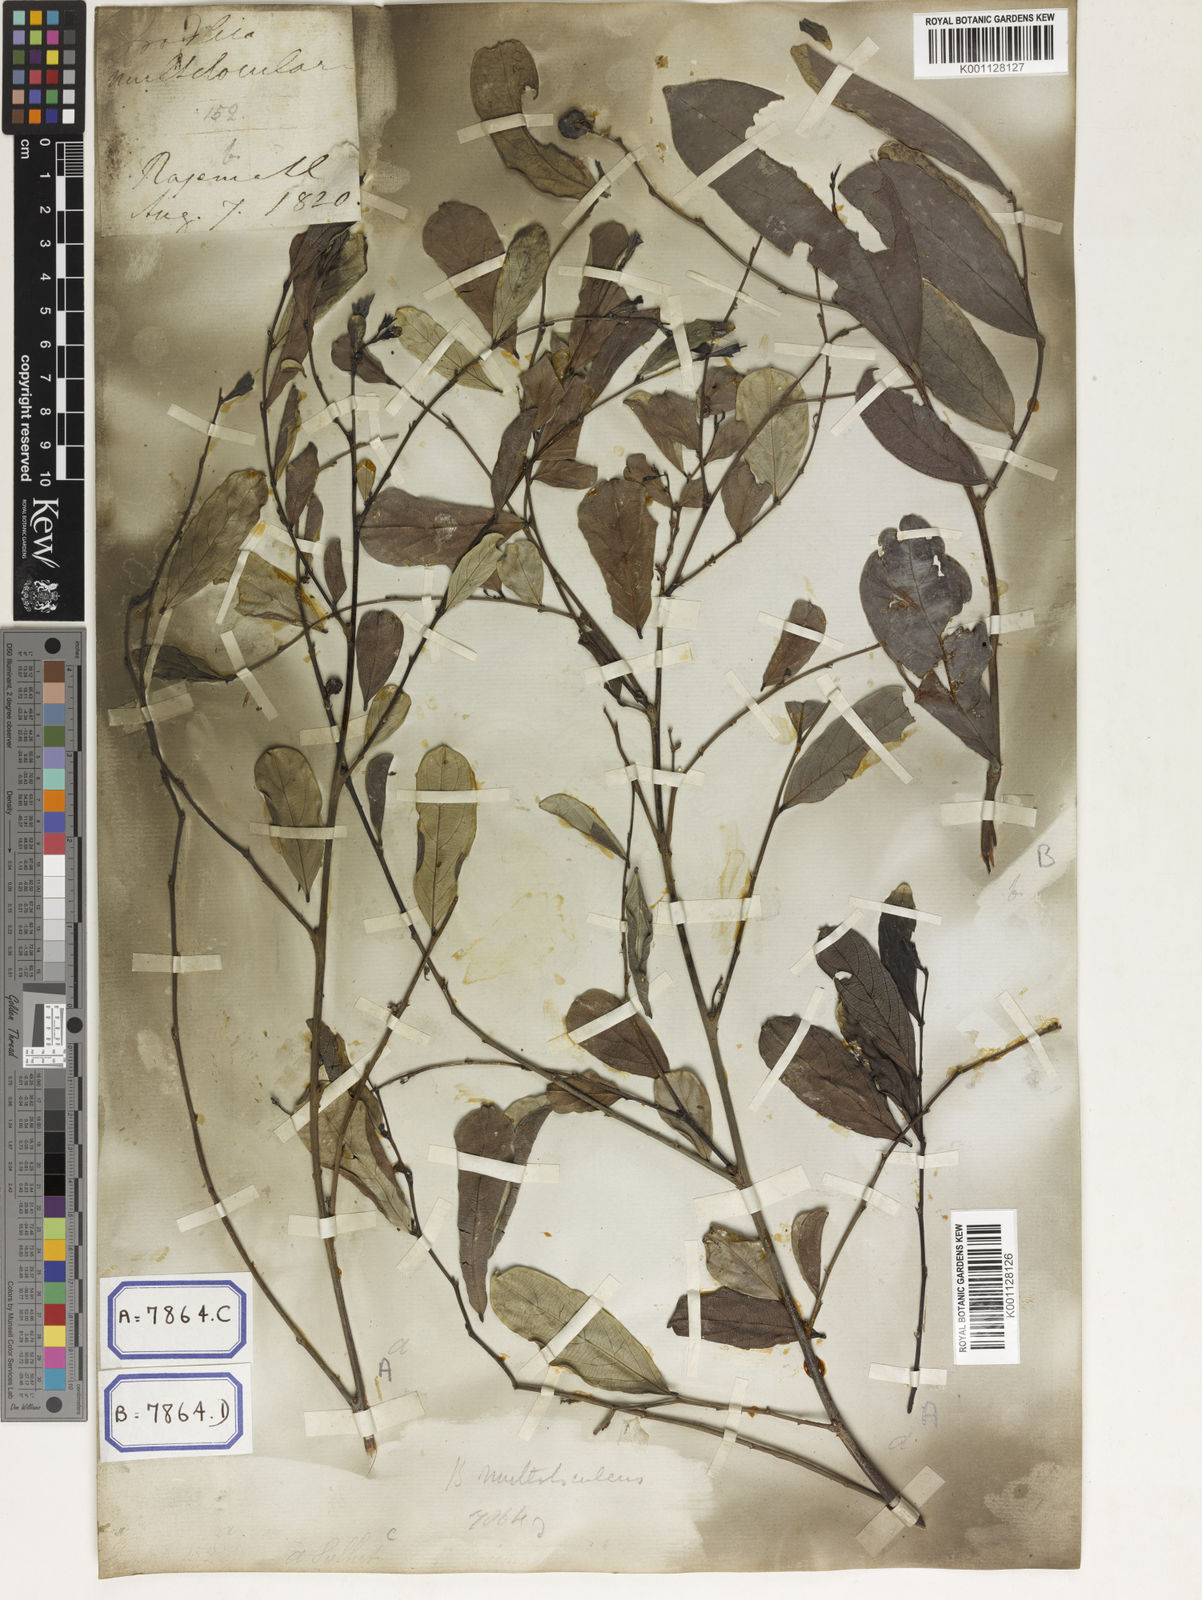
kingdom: Plantae
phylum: Tracheophyta
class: Magnoliopsida
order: Malpighiales
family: Euphorbiaceae
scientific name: Euphorbiaceae
